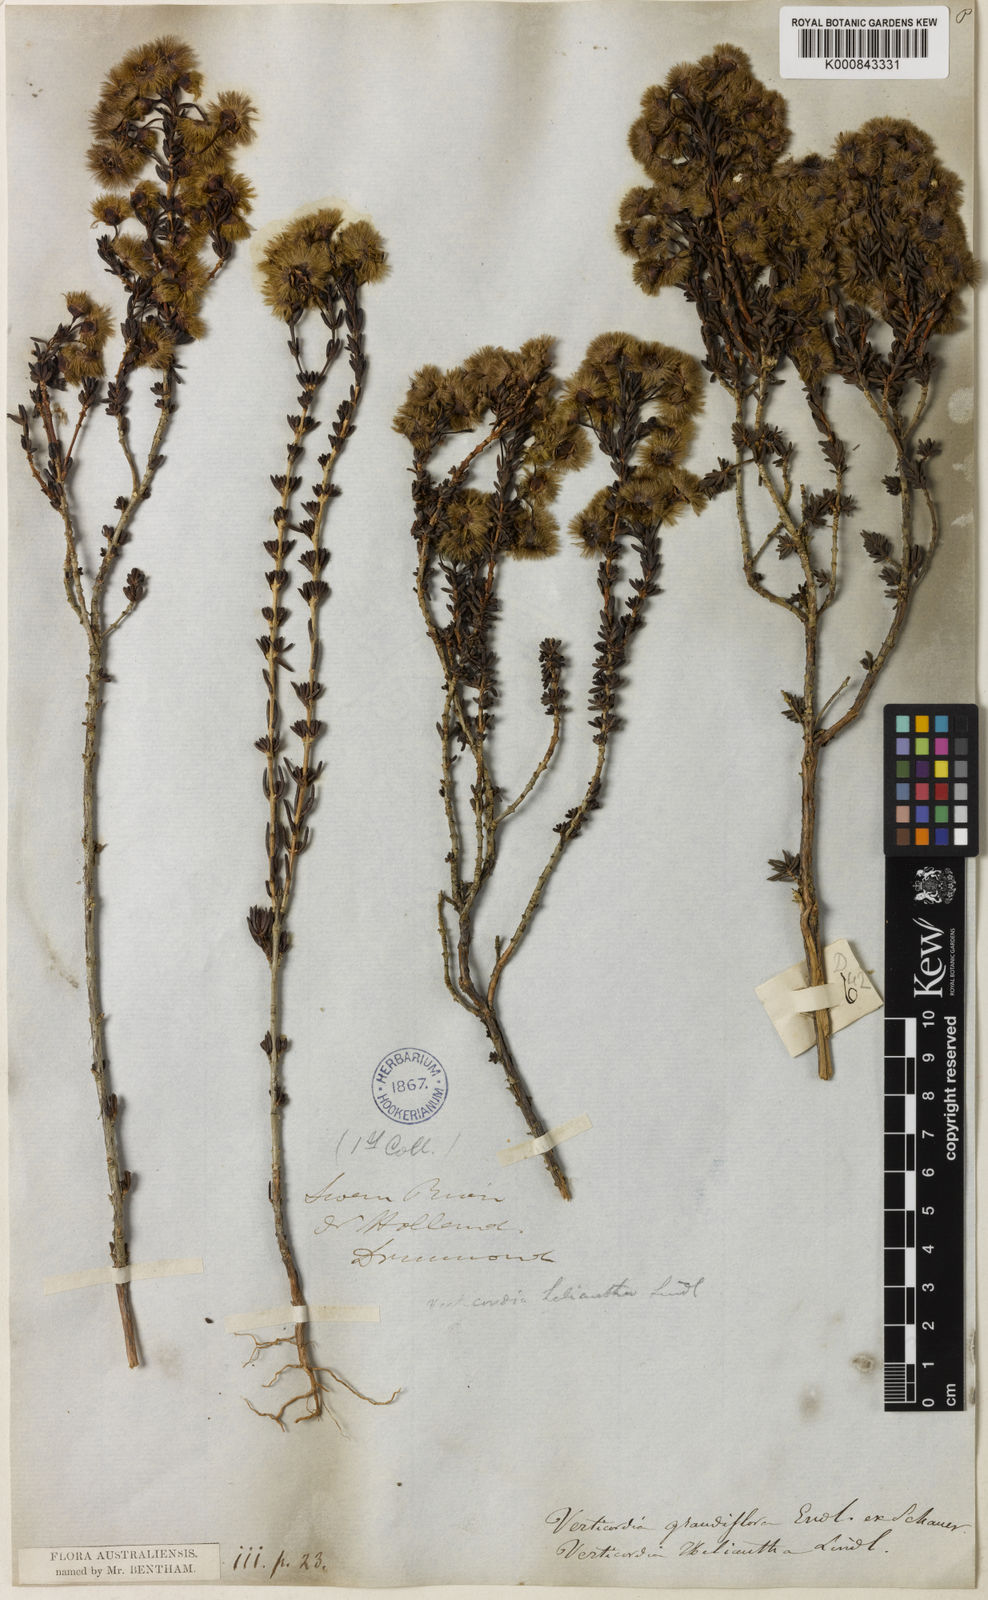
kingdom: Plantae
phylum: Tracheophyta
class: Magnoliopsida
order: Myrtales
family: Myrtaceae
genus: Verticordia
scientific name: Verticordia grandiflora
